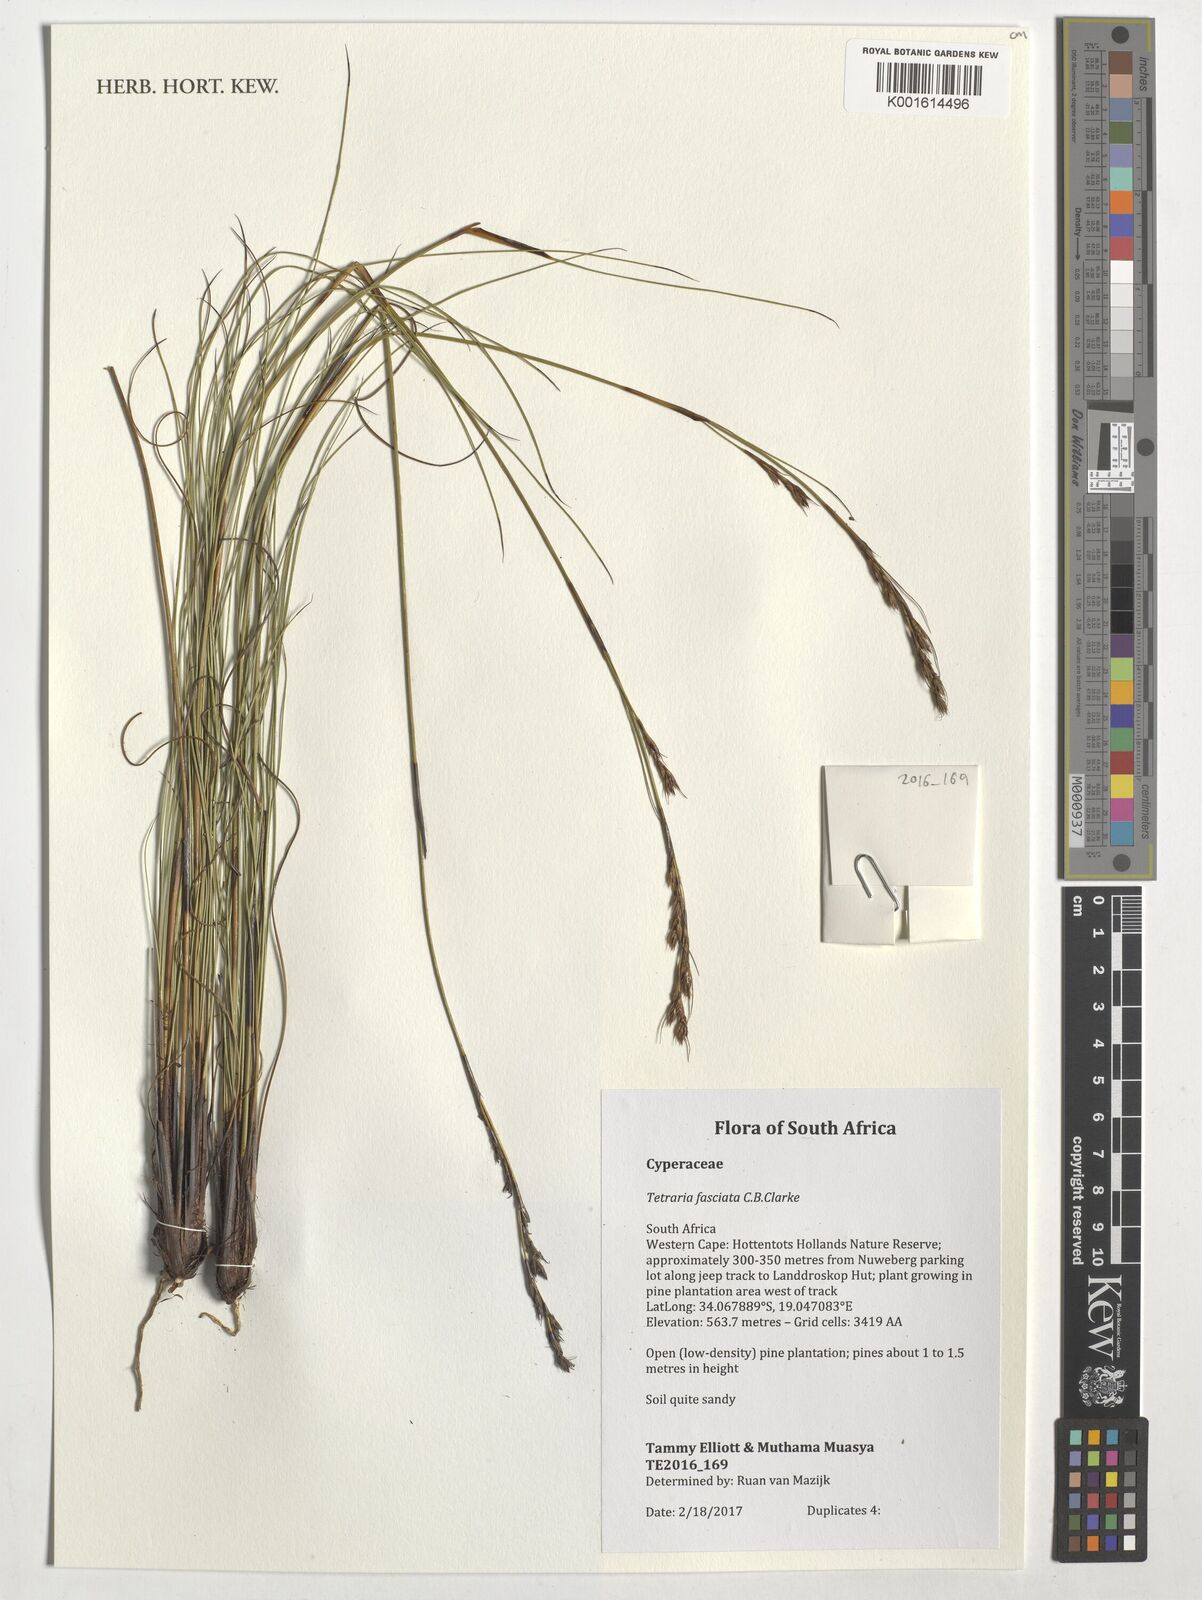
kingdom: Plantae
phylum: Tracheophyta
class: Liliopsida
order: Poales
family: Cyperaceae
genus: Tetraria
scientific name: Tetraria fasciata
